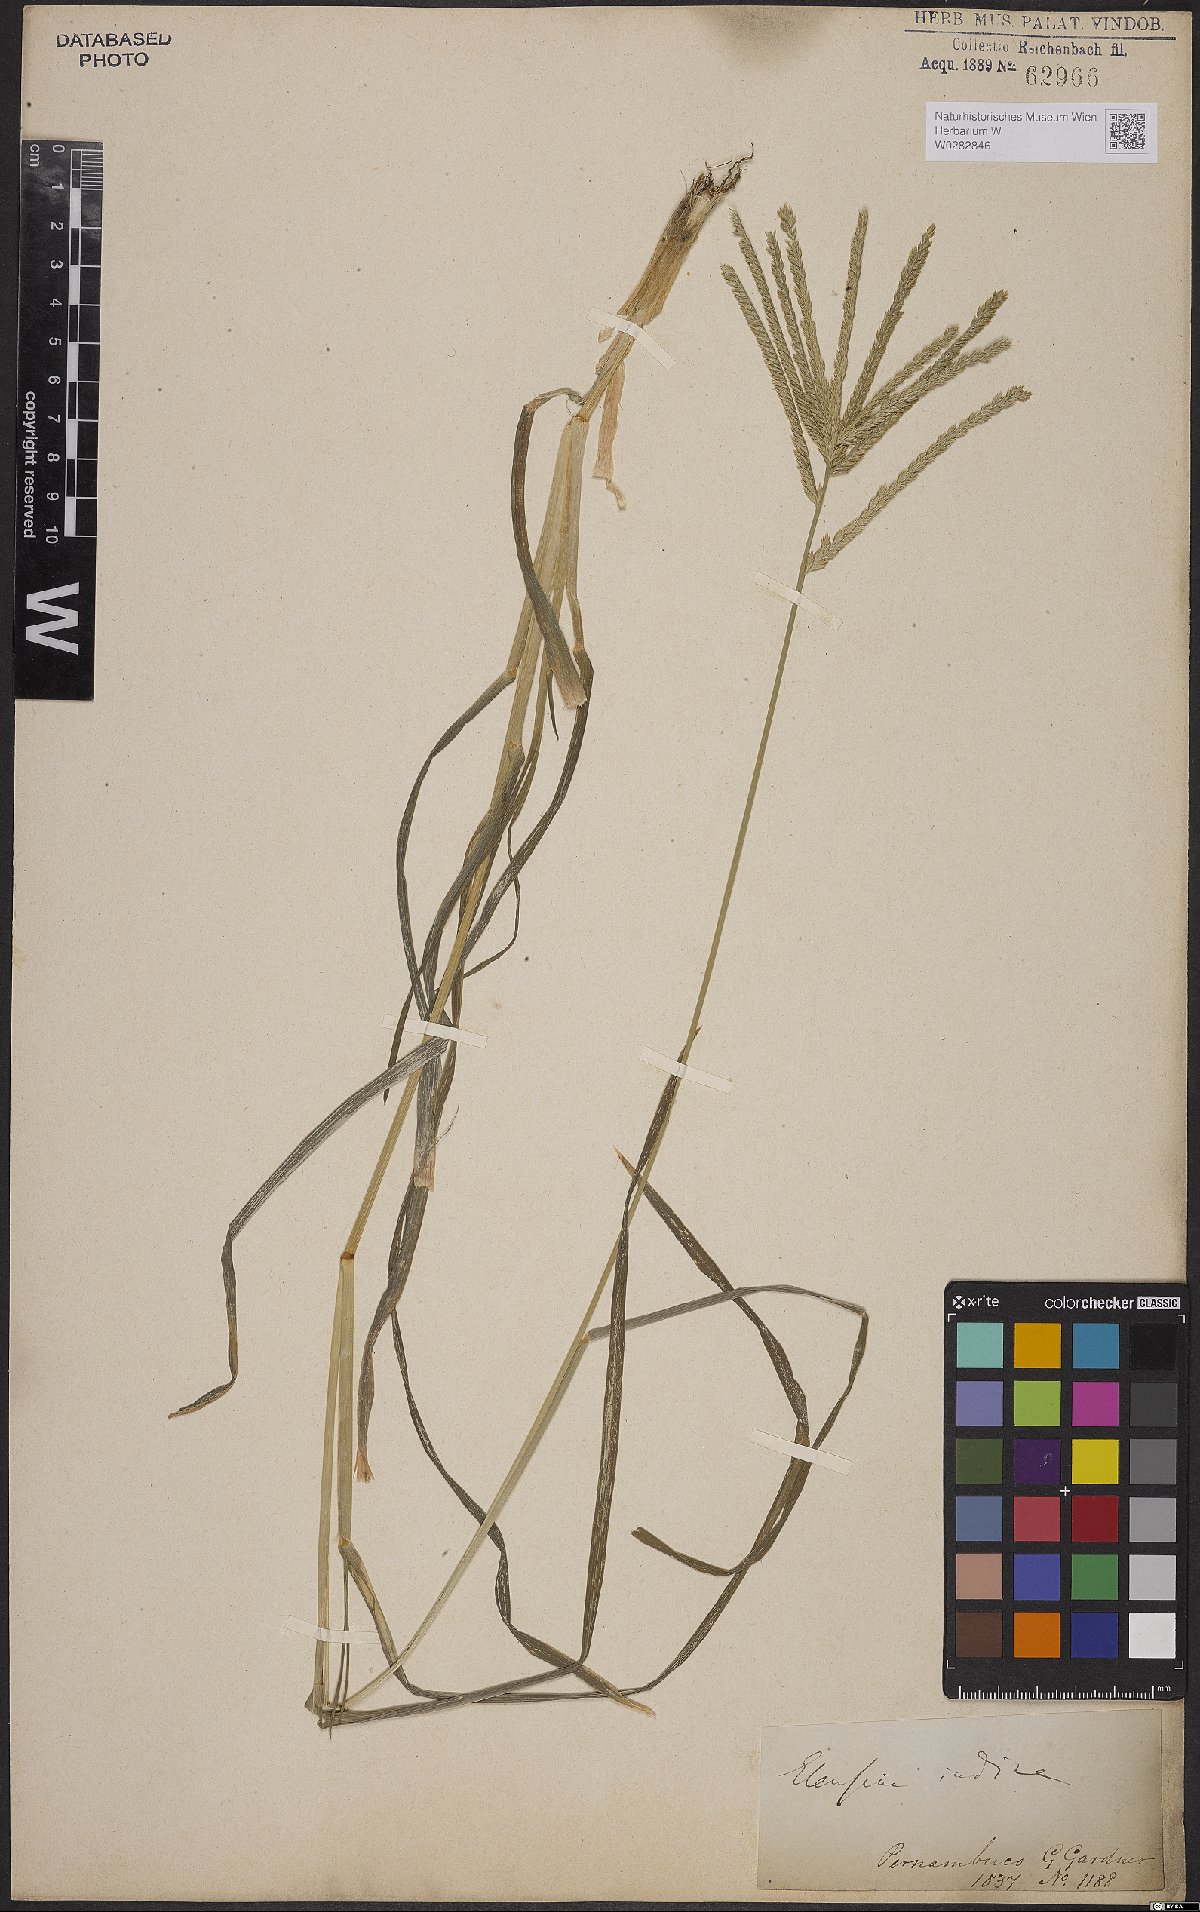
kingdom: Plantae
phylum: Tracheophyta
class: Liliopsida
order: Poales
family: Poaceae
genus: Eleusine
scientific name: Eleusine indica
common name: Yard-grass
